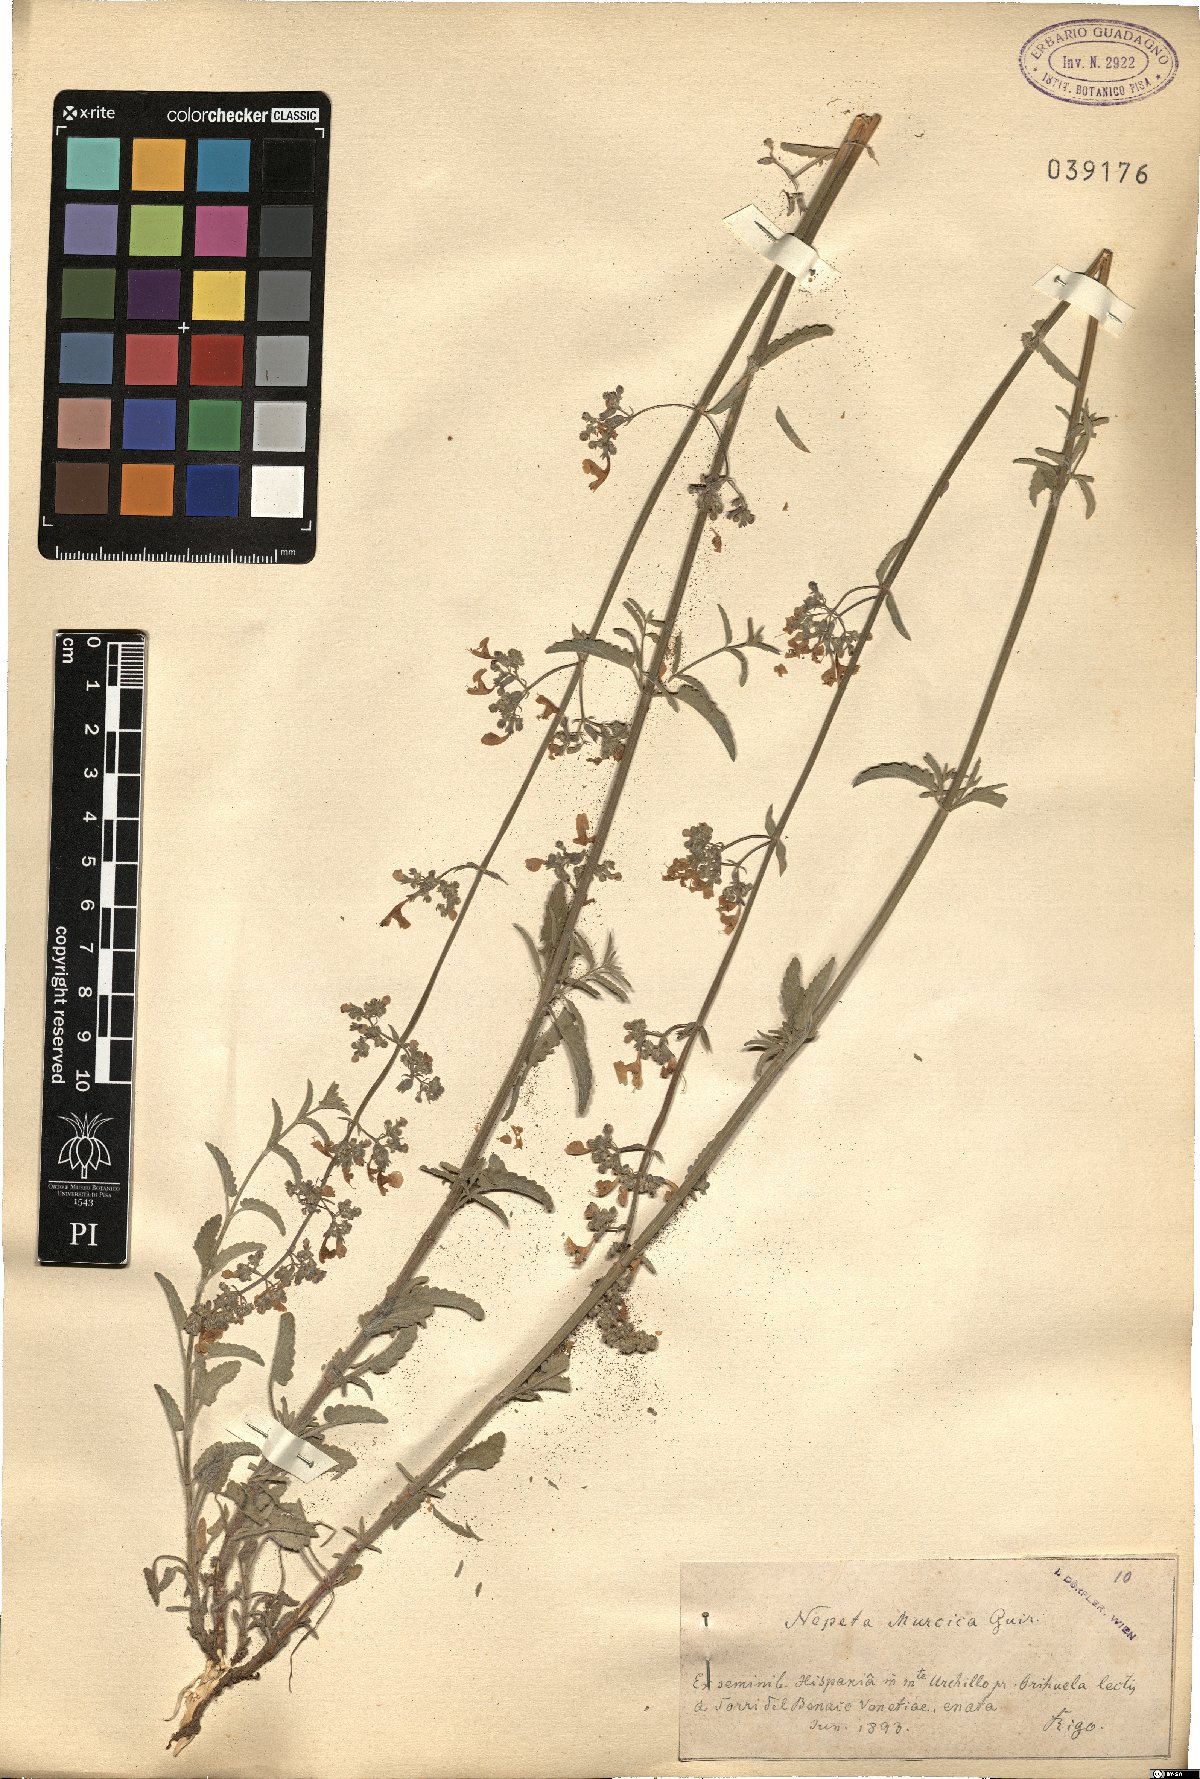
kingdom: Plantae
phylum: Tracheophyta
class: Magnoliopsida
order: Lamiales
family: Lamiaceae
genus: Nepeta
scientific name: Nepeta nepetella
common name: Lesser catmint
